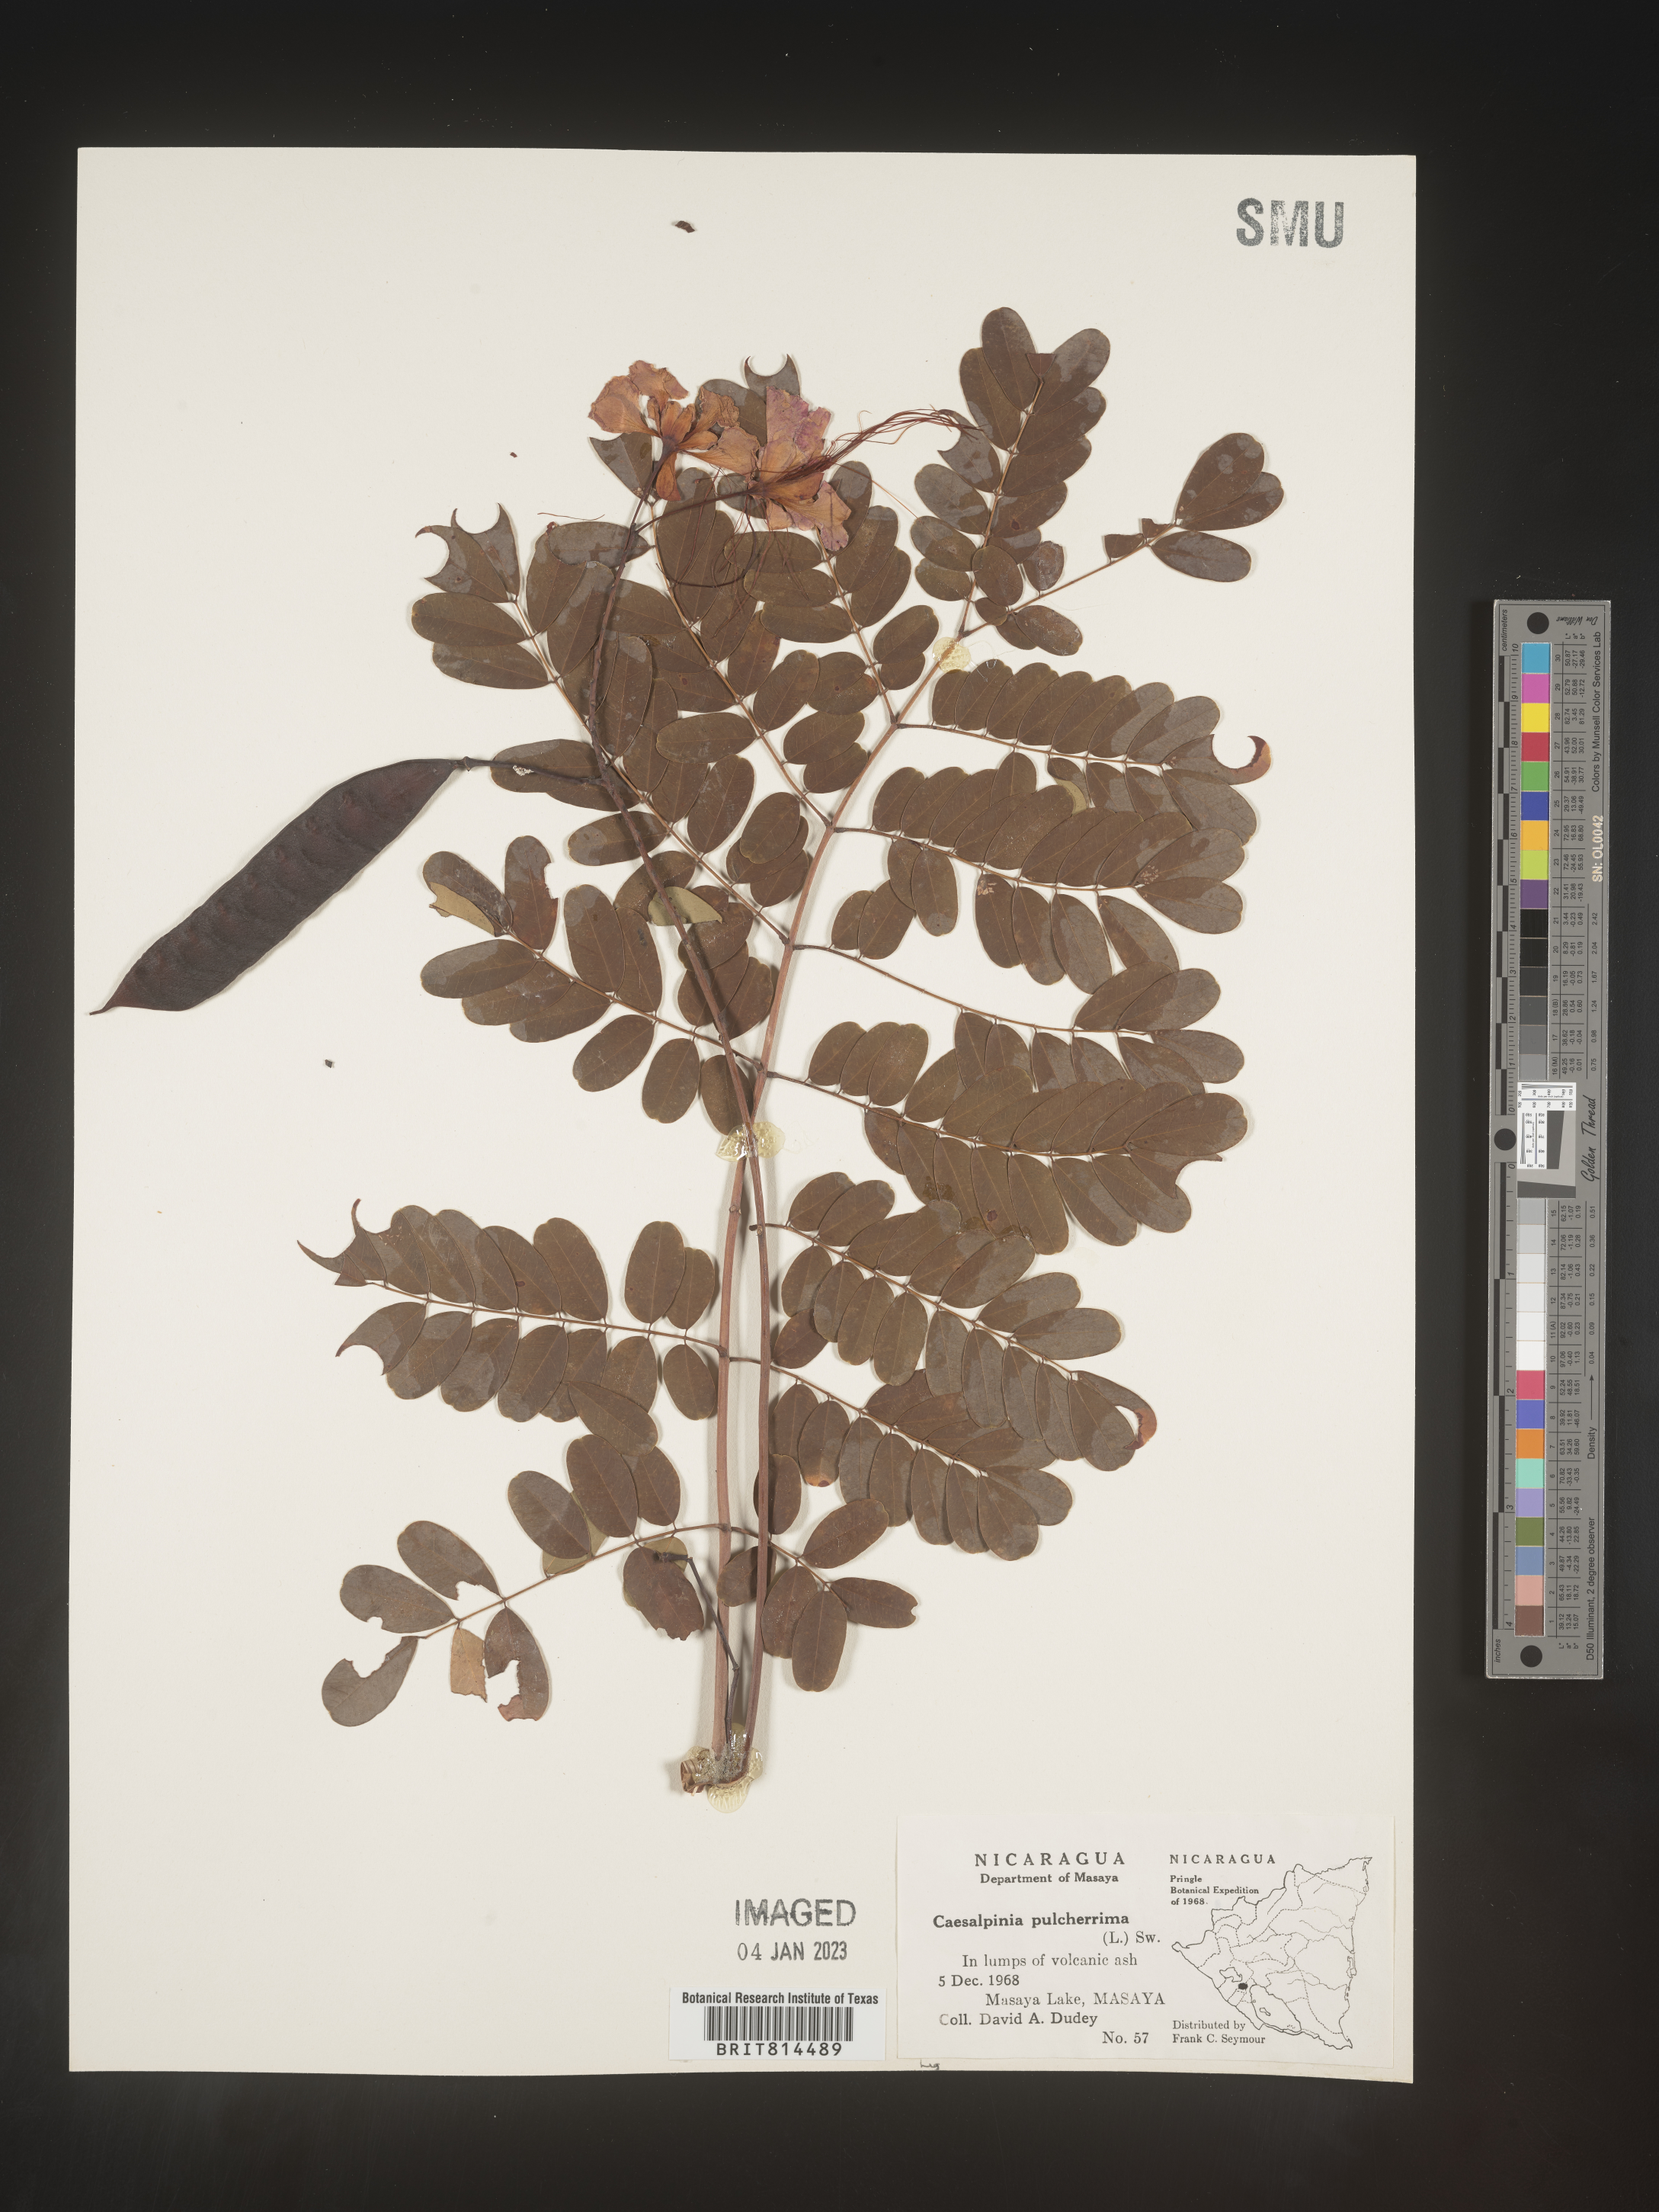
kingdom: Plantae
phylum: Tracheophyta
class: Magnoliopsida
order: Fabales
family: Fabaceae
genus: Caesalpinia
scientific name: Caesalpinia
